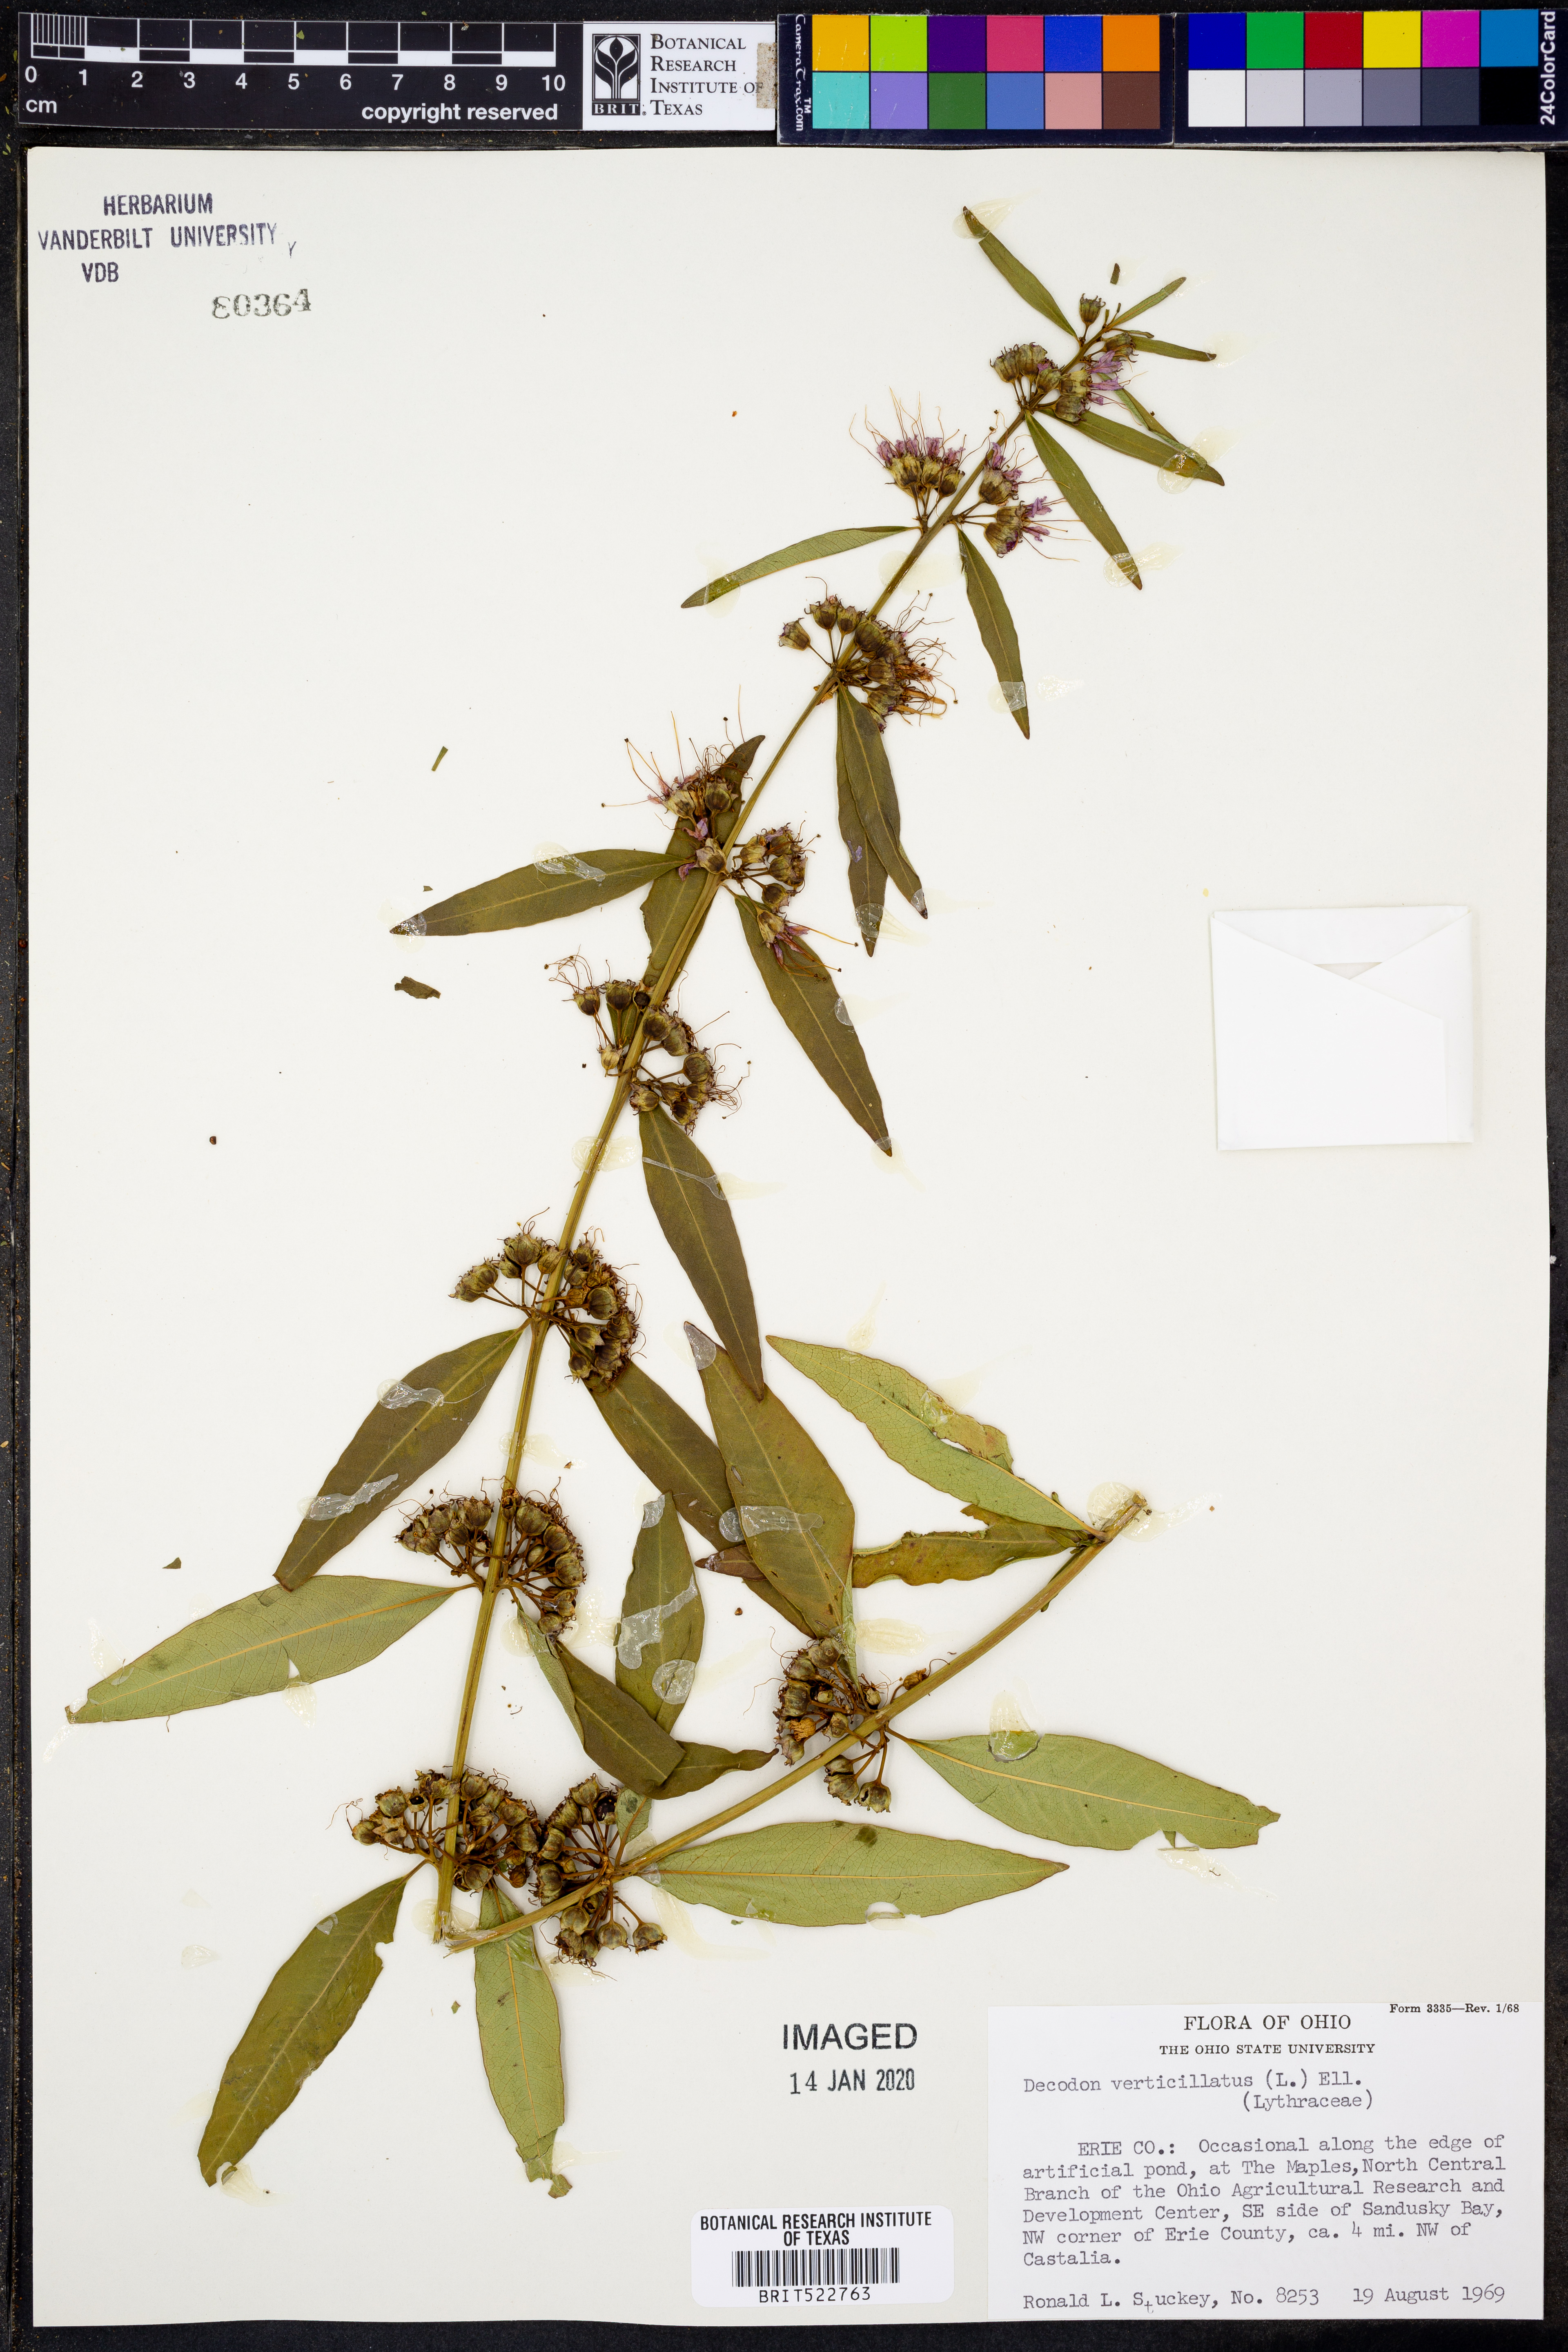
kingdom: Plantae
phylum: Tracheophyta
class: Magnoliopsida
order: Myrtales
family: Lythraceae
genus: Decodon
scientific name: Decodon verticillatus
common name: Hairy swamp loosestrife
